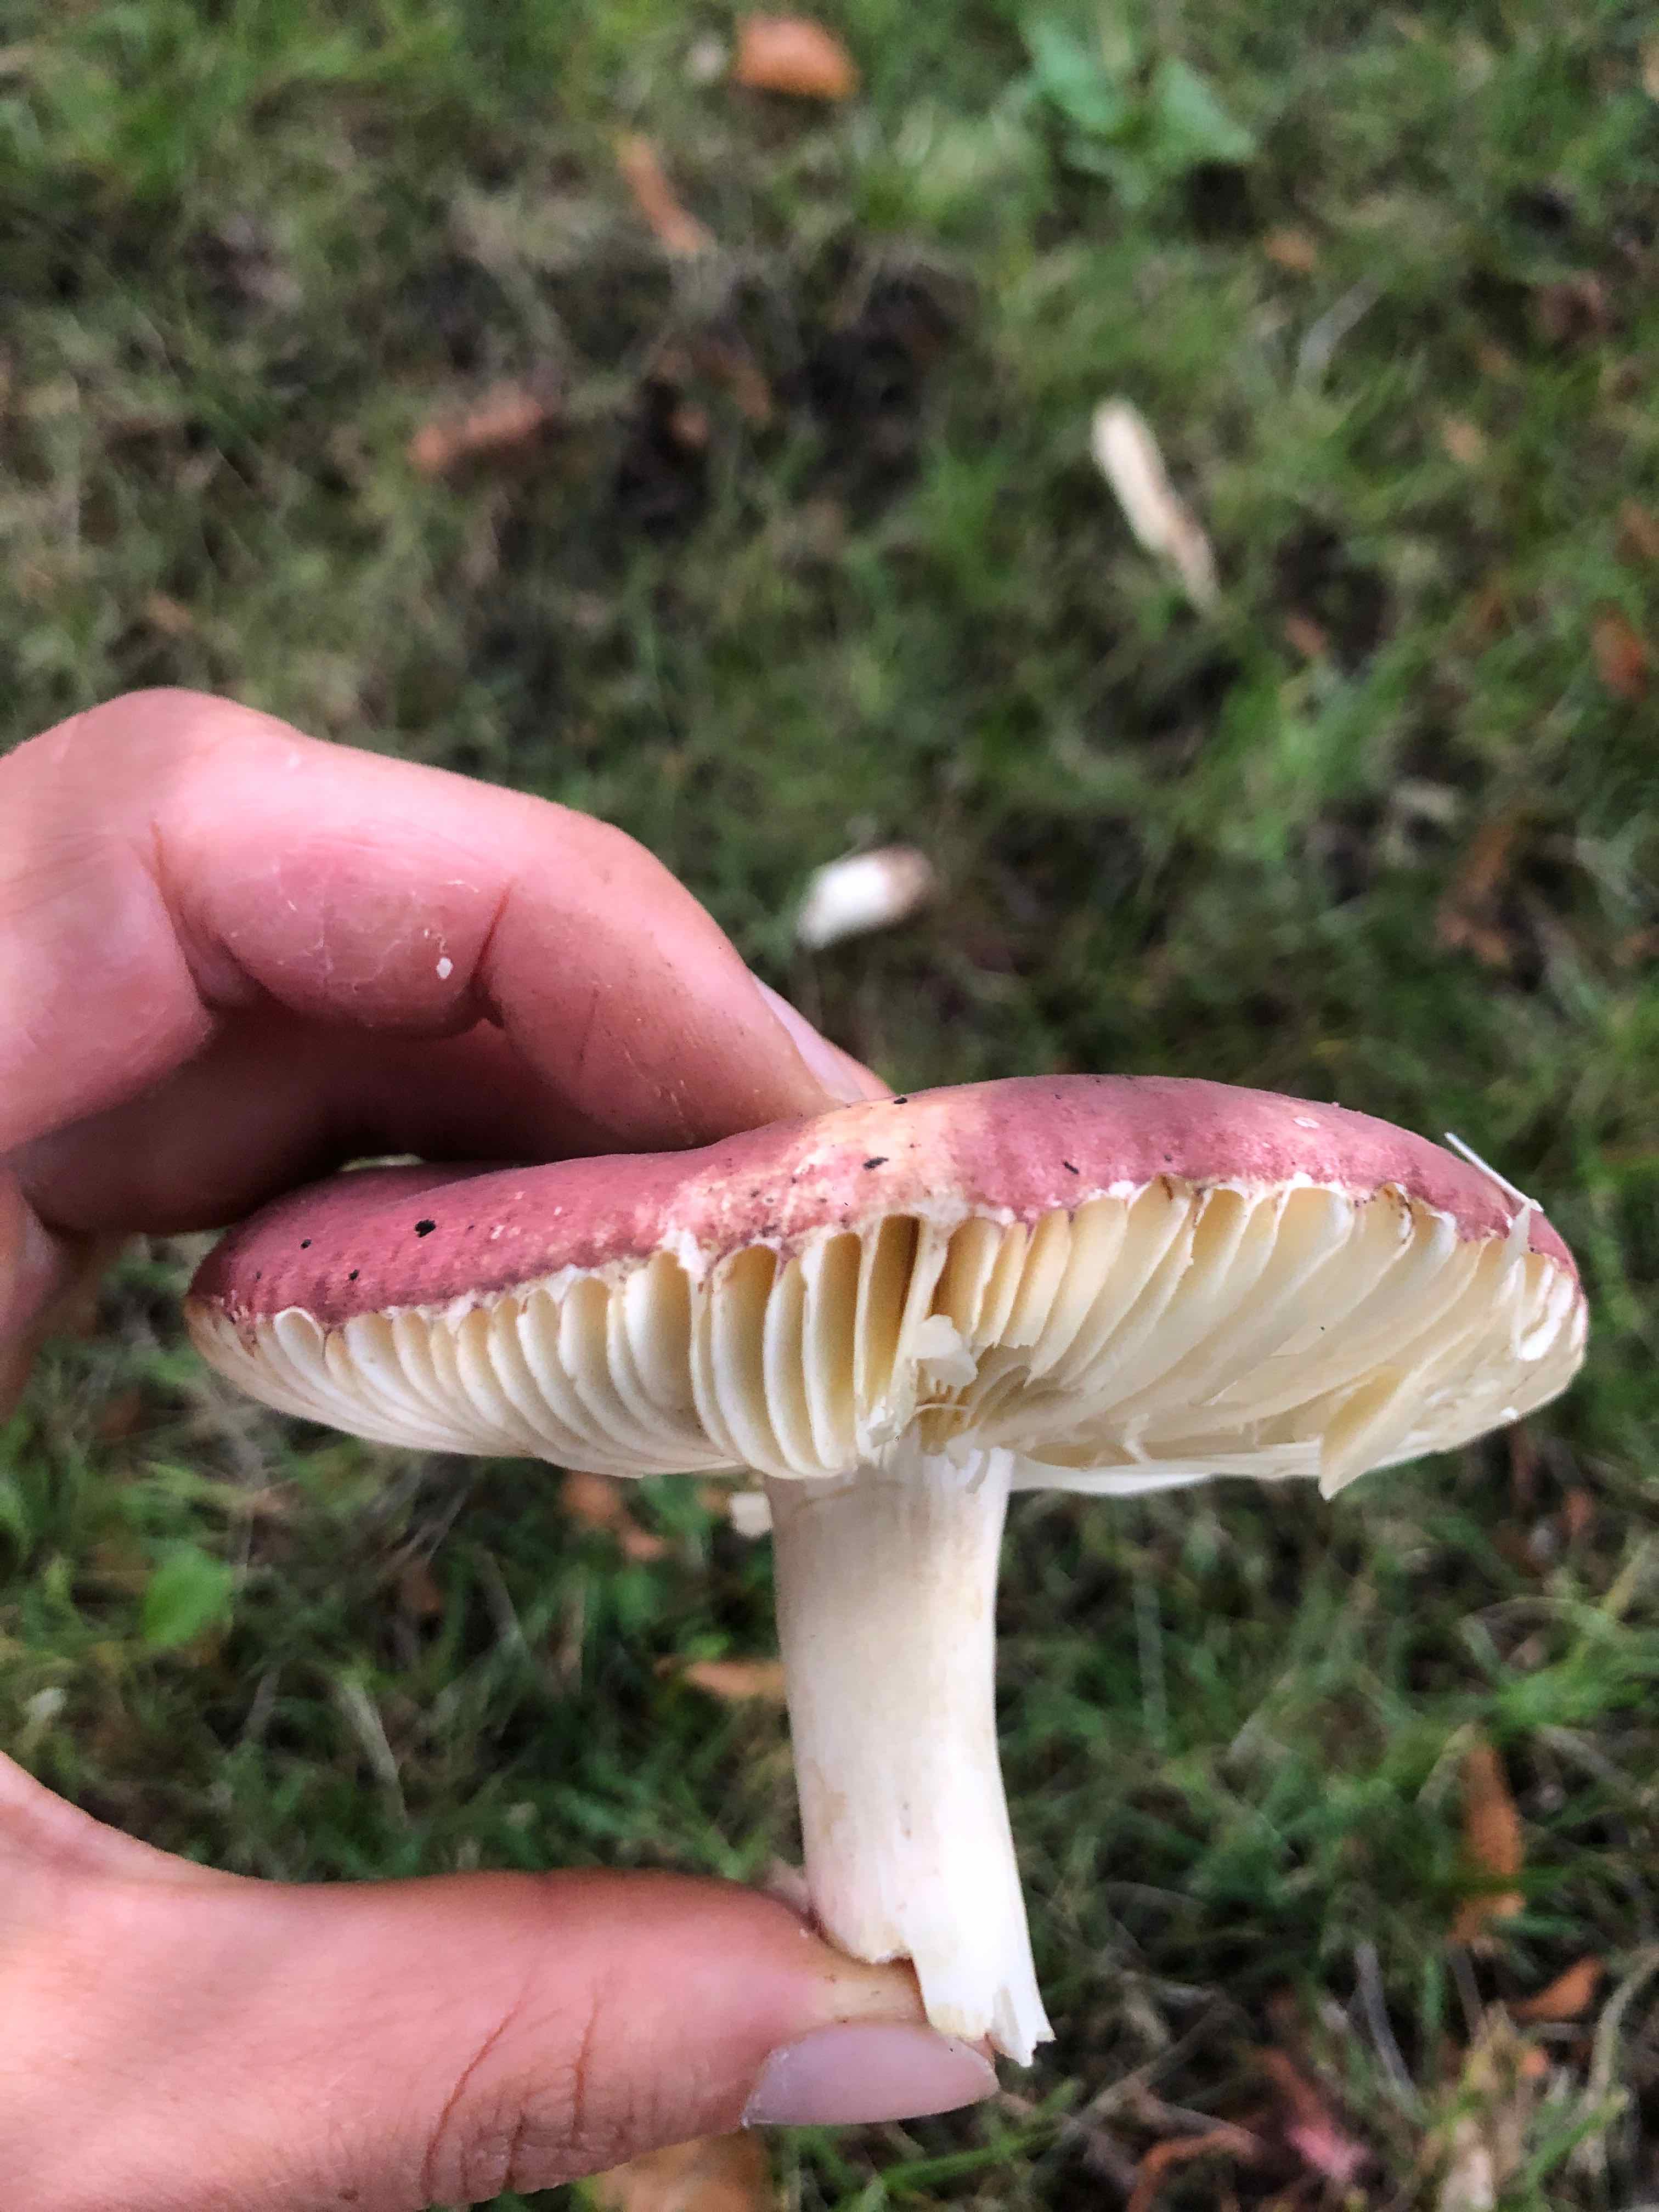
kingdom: Fungi
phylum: Basidiomycota
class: Agaricomycetes
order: Russulales
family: Russulaceae
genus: Russula
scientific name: Russula
